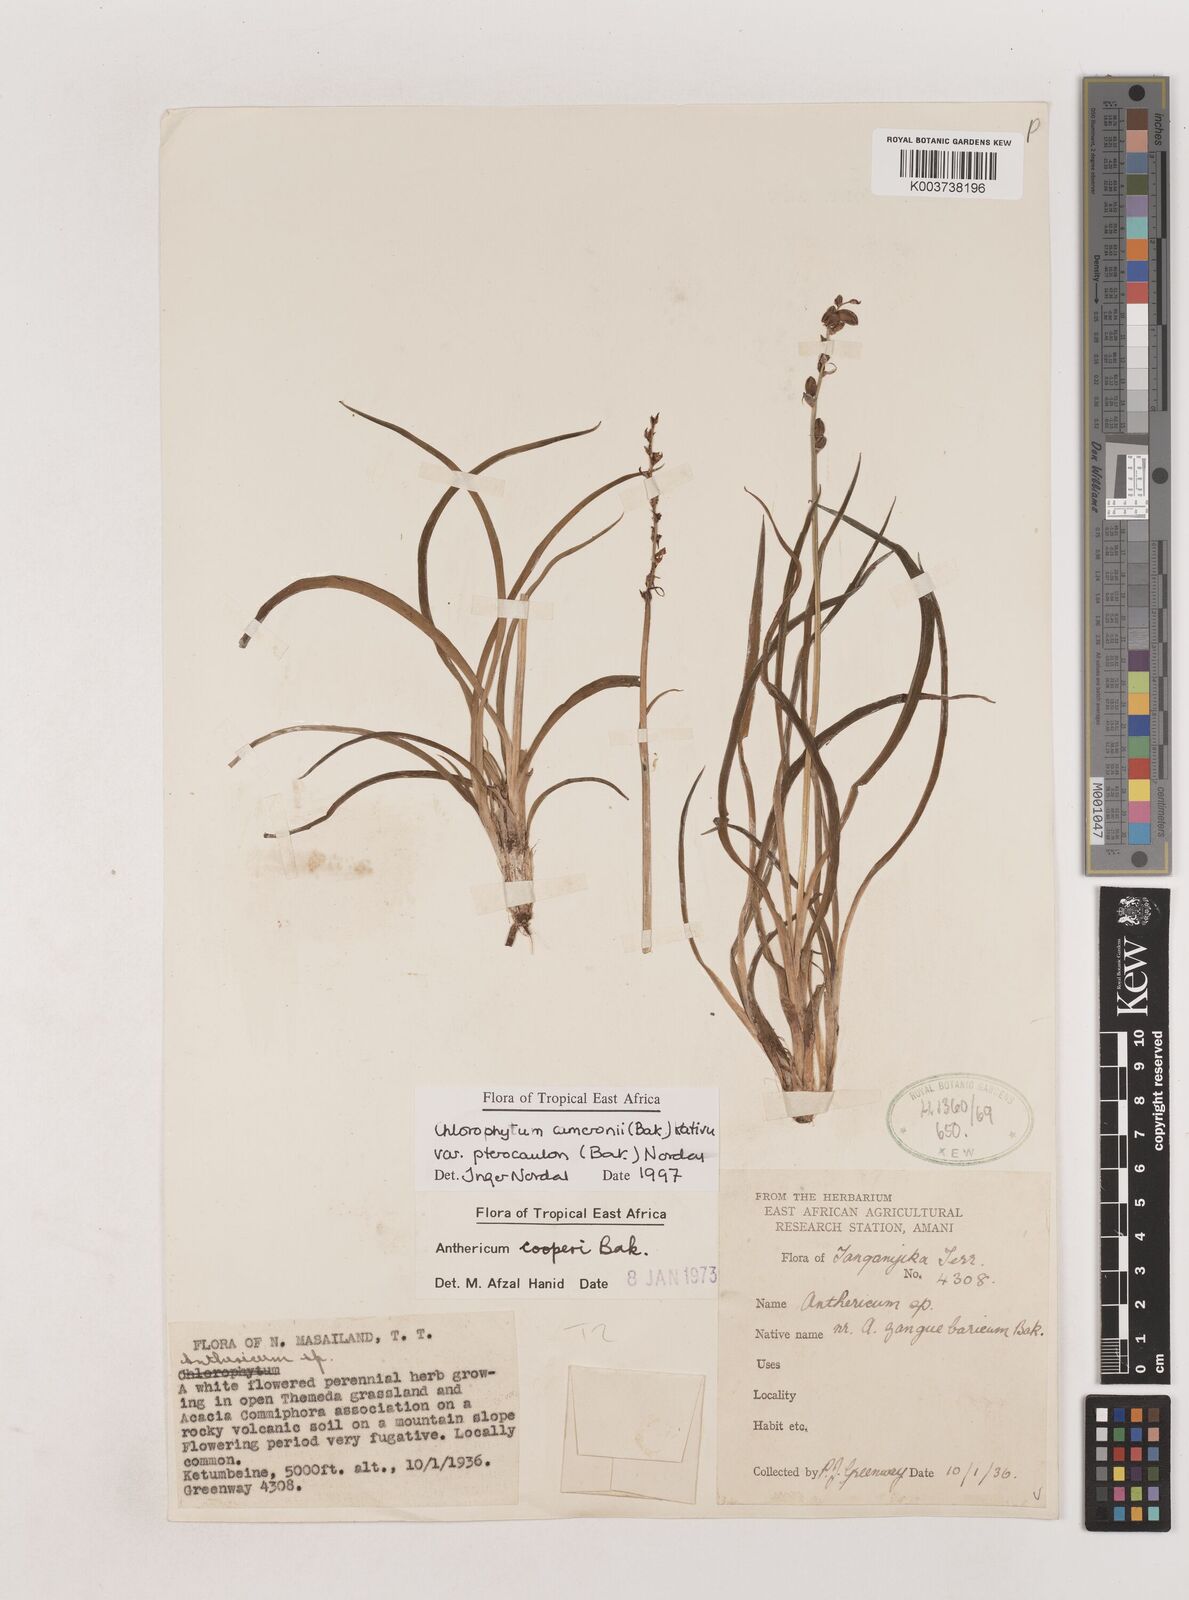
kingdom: Plantae
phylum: Tracheophyta
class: Liliopsida
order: Asparagales
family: Asparagaceae
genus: Chlorophytum
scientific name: Chlorophytum cameronii
